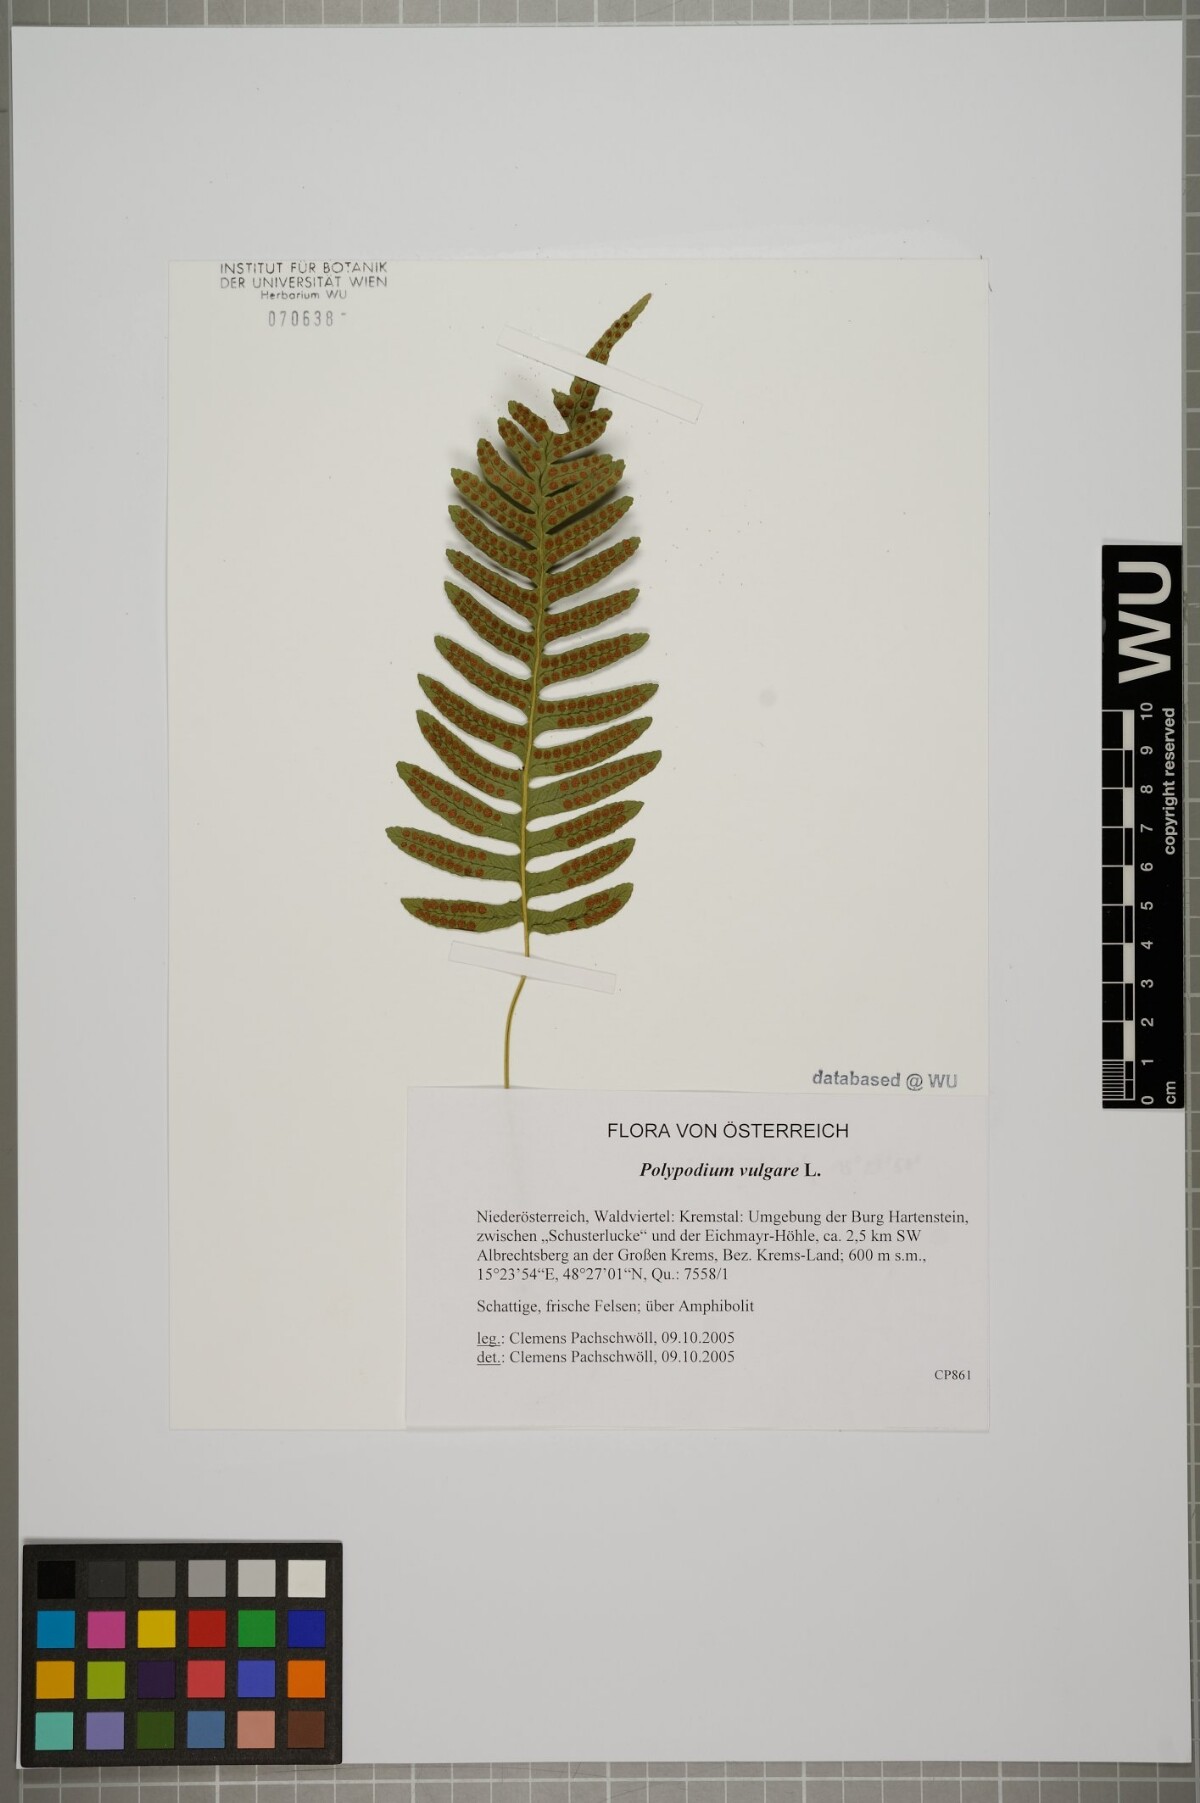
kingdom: Plantae
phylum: Tracheophyta
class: Polypodiopsida
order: Polypodiales
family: Polypodiaceae
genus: Polypodium
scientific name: Polypodium vulgare
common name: Common polypody
